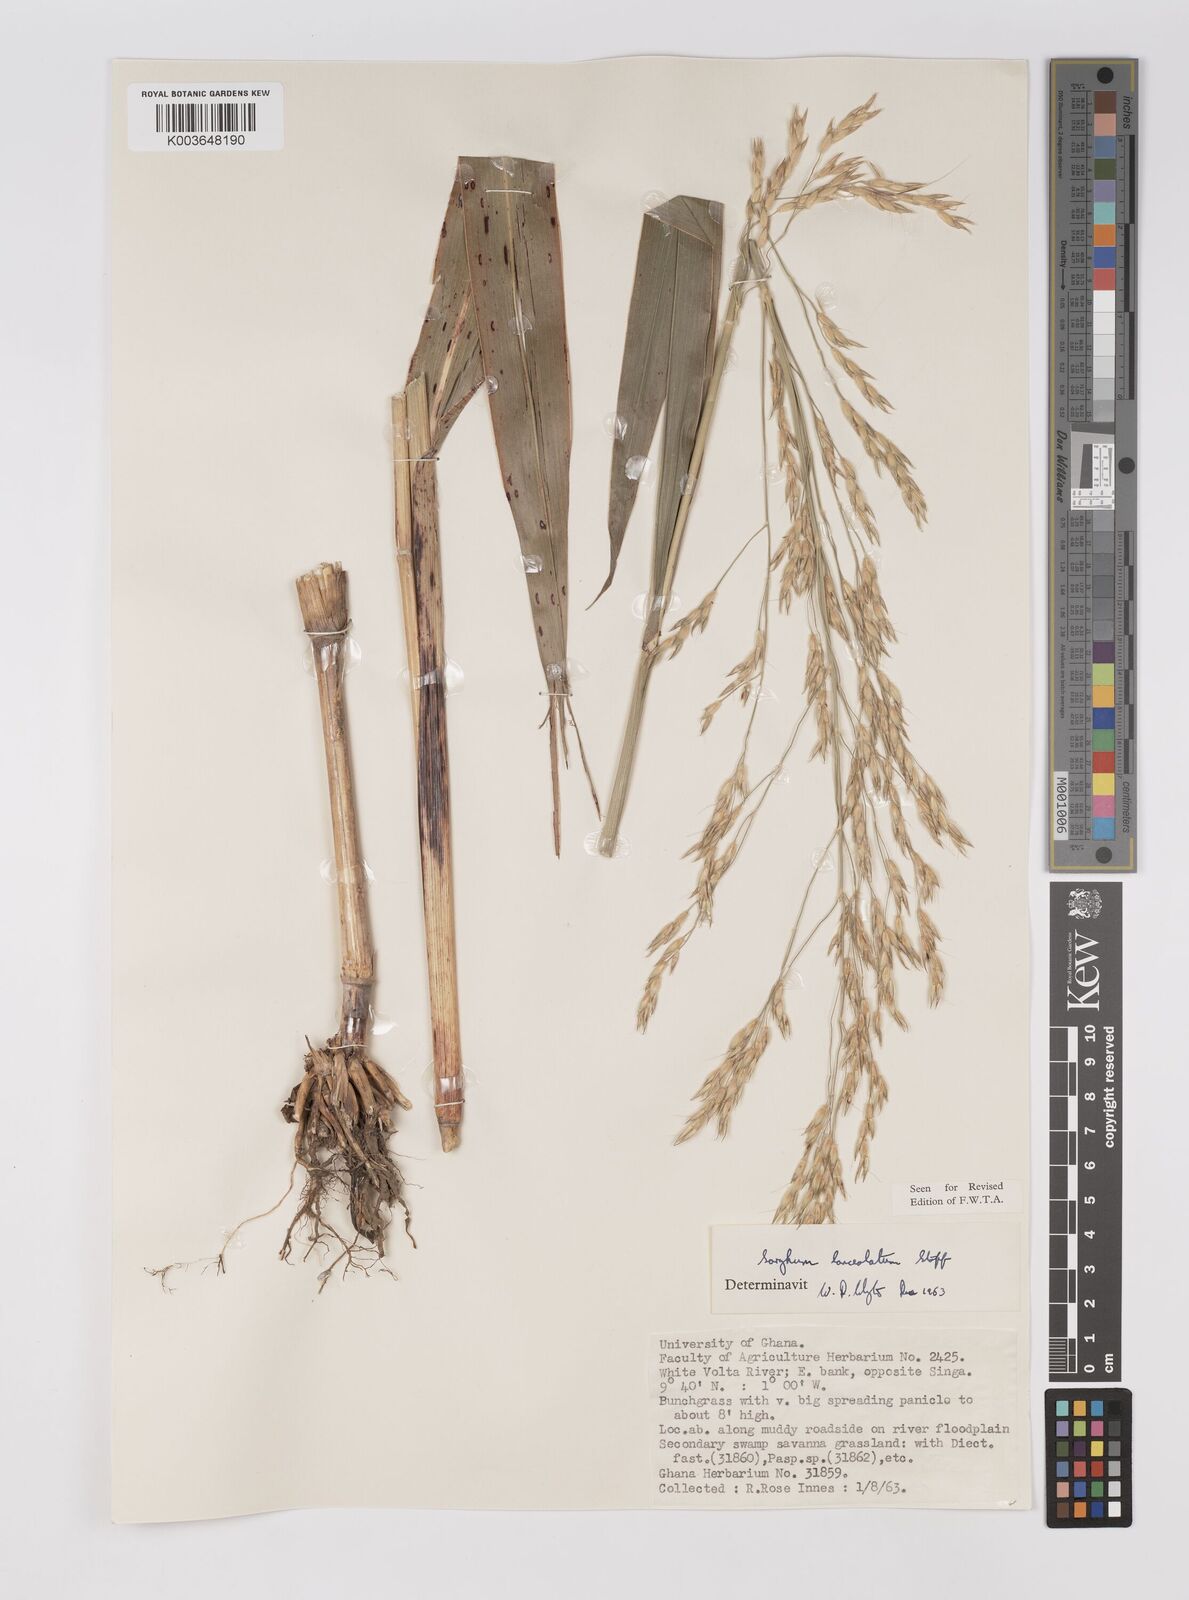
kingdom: Plantae
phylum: Tracheophyta
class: Liliopsida
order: Poales
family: Poaceae
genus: Sorghum
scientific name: Sorghum arundinaceum
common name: Sorghum
